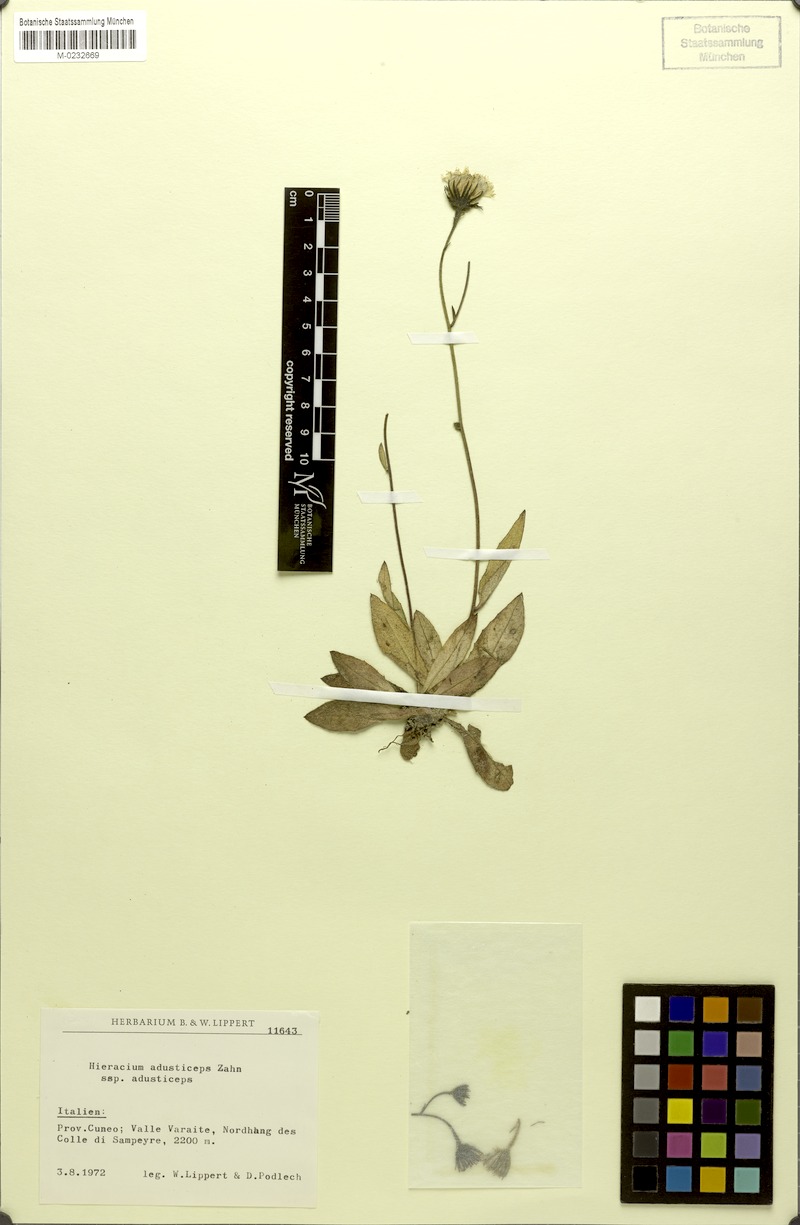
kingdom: Plantae
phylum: Tracheophyta
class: Magnoliopsida
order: Asterales
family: Asteraceae
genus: Hieracium
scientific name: Hieracium melanops
